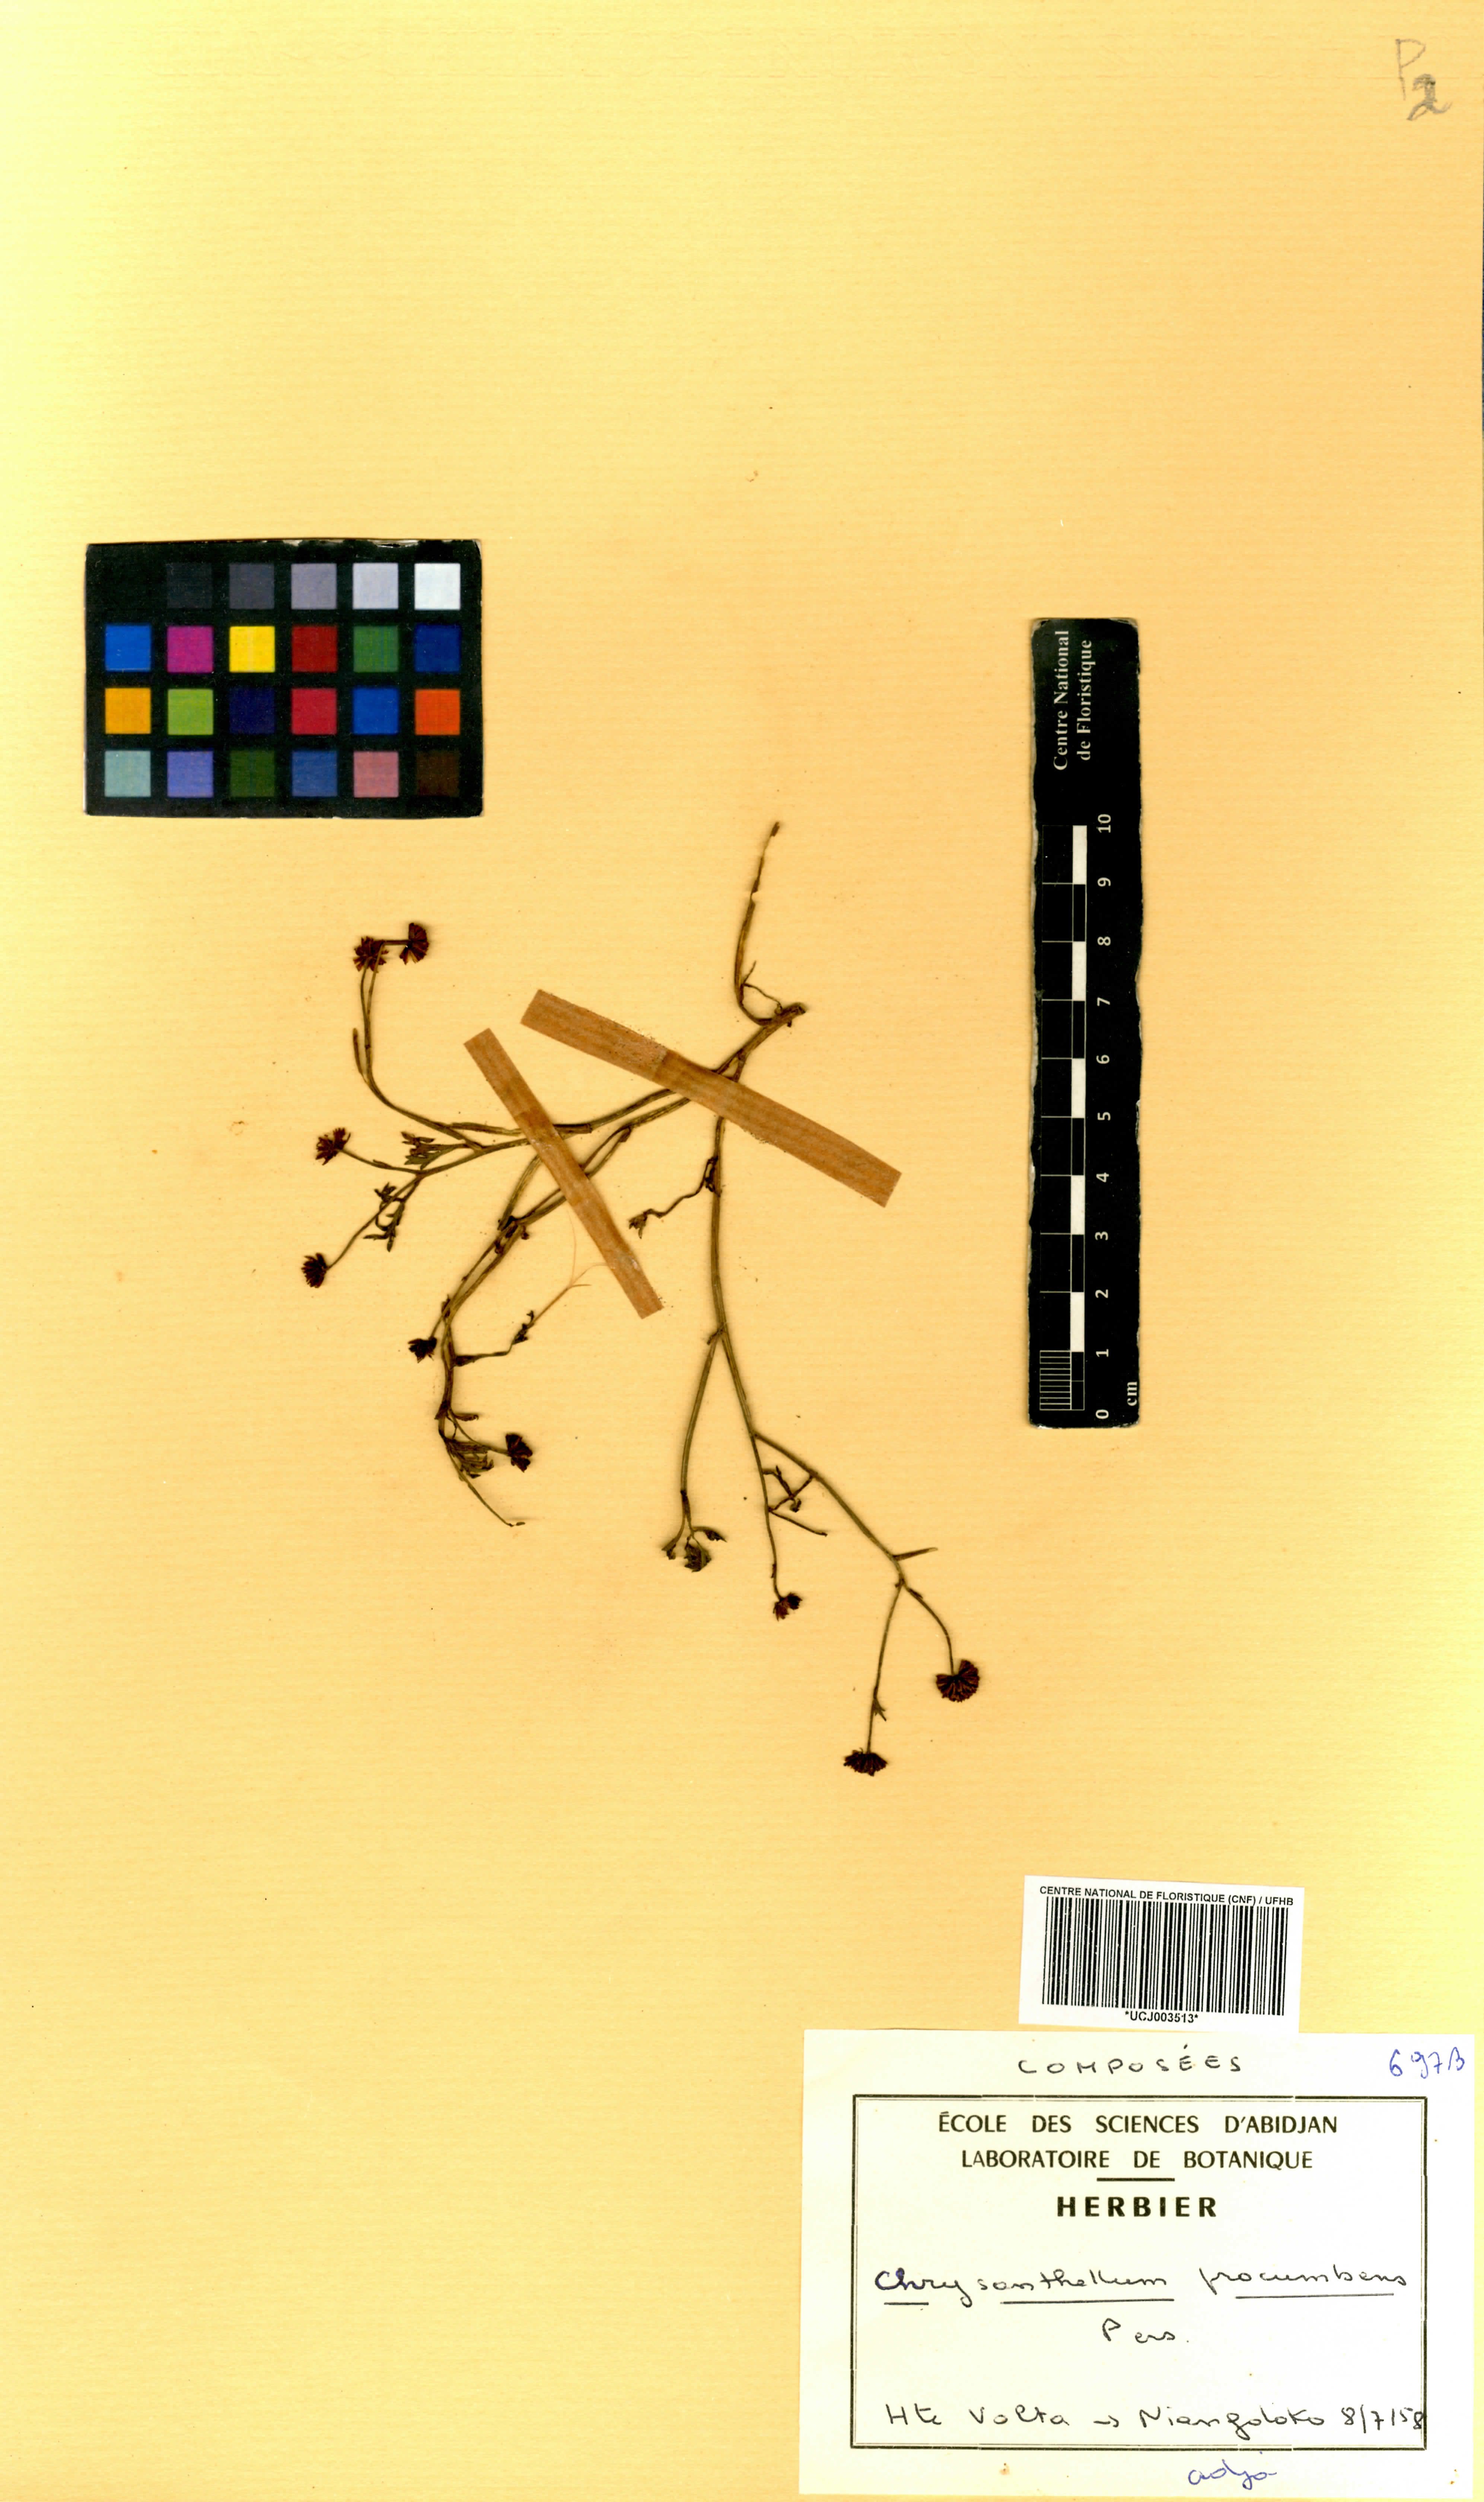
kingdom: Plantae
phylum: Tracheophyta
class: Magnoliopsida
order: Asterales
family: Asteraceae
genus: Chrysanthellum
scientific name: Chrysanthellum americanum
